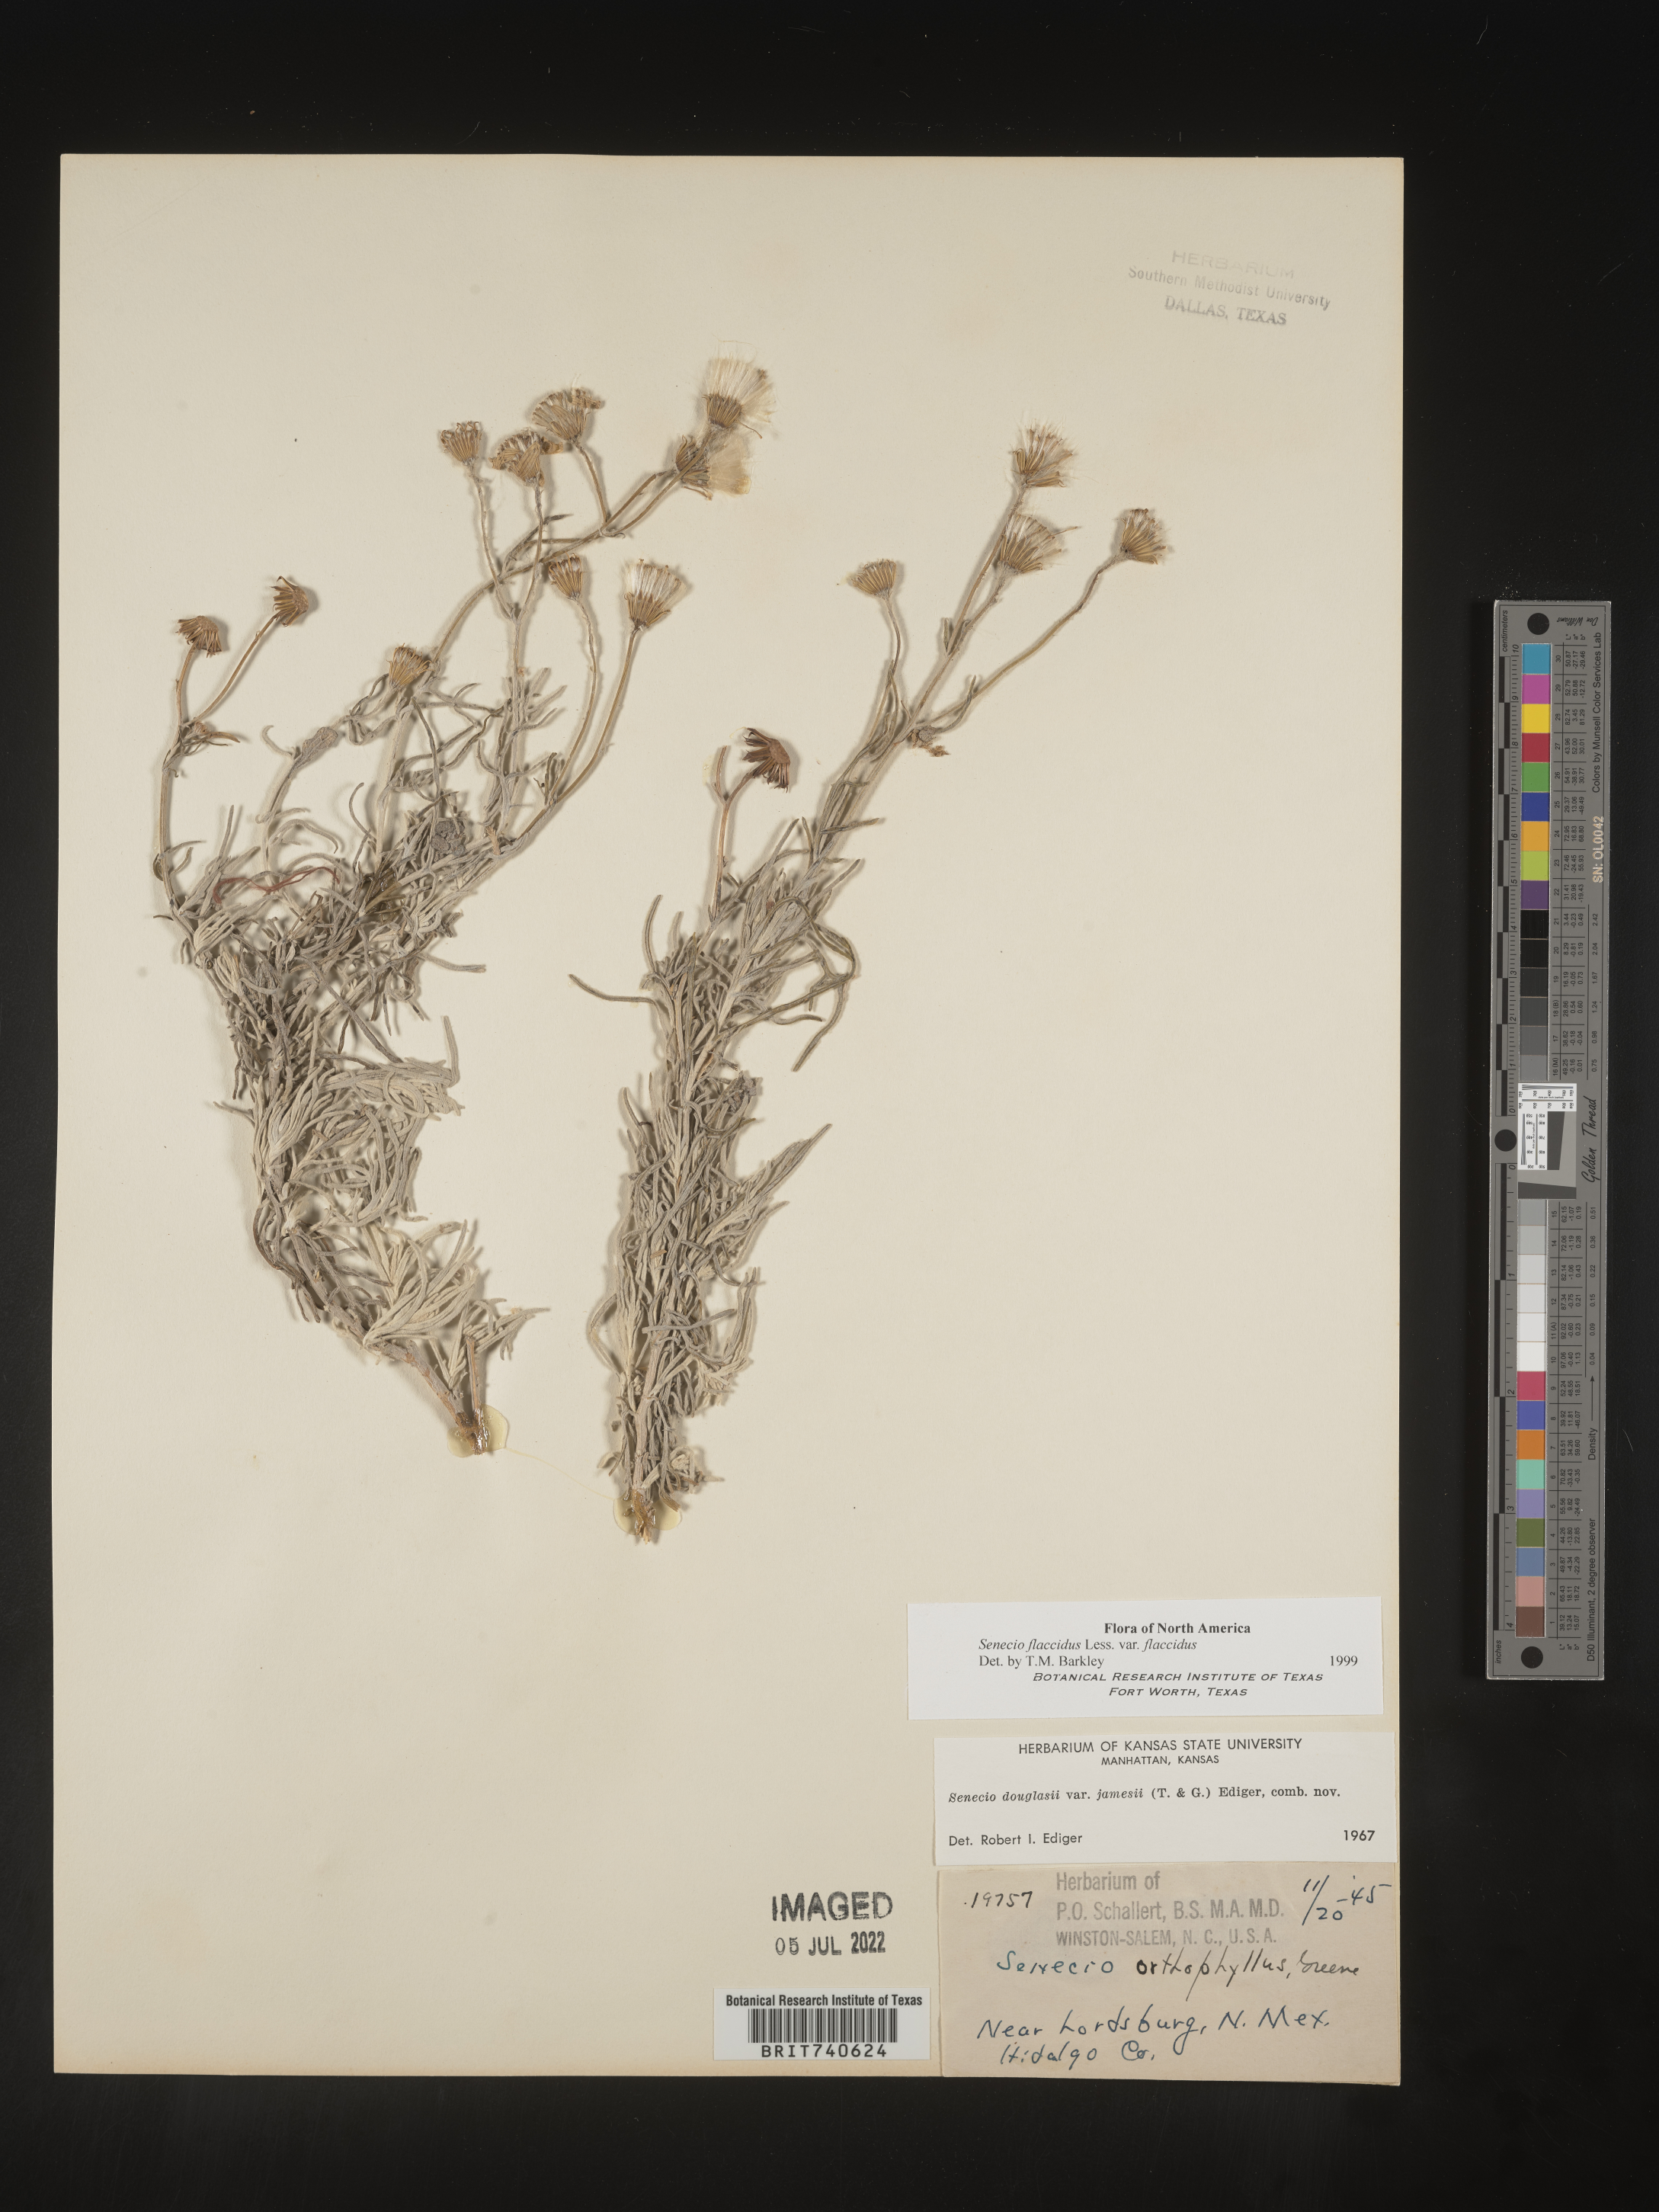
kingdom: Plantae
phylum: Tracheophyta
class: Magnoliopsida
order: Asterales
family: Asteraceae
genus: Senecio
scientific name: Senecio flaccidus
